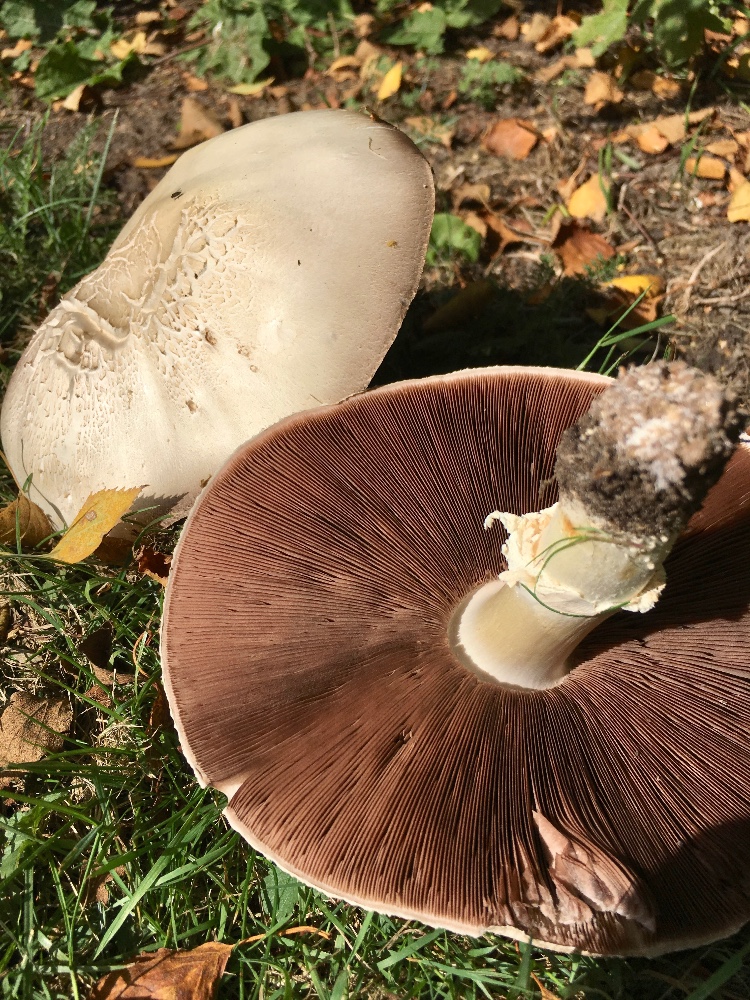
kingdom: Fungi
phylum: Basidiomycota
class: Agaricomycetes
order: Agaricales
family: Agaricaceae
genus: Agaricus
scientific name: Agaricus arvensis
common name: ager-champignon
